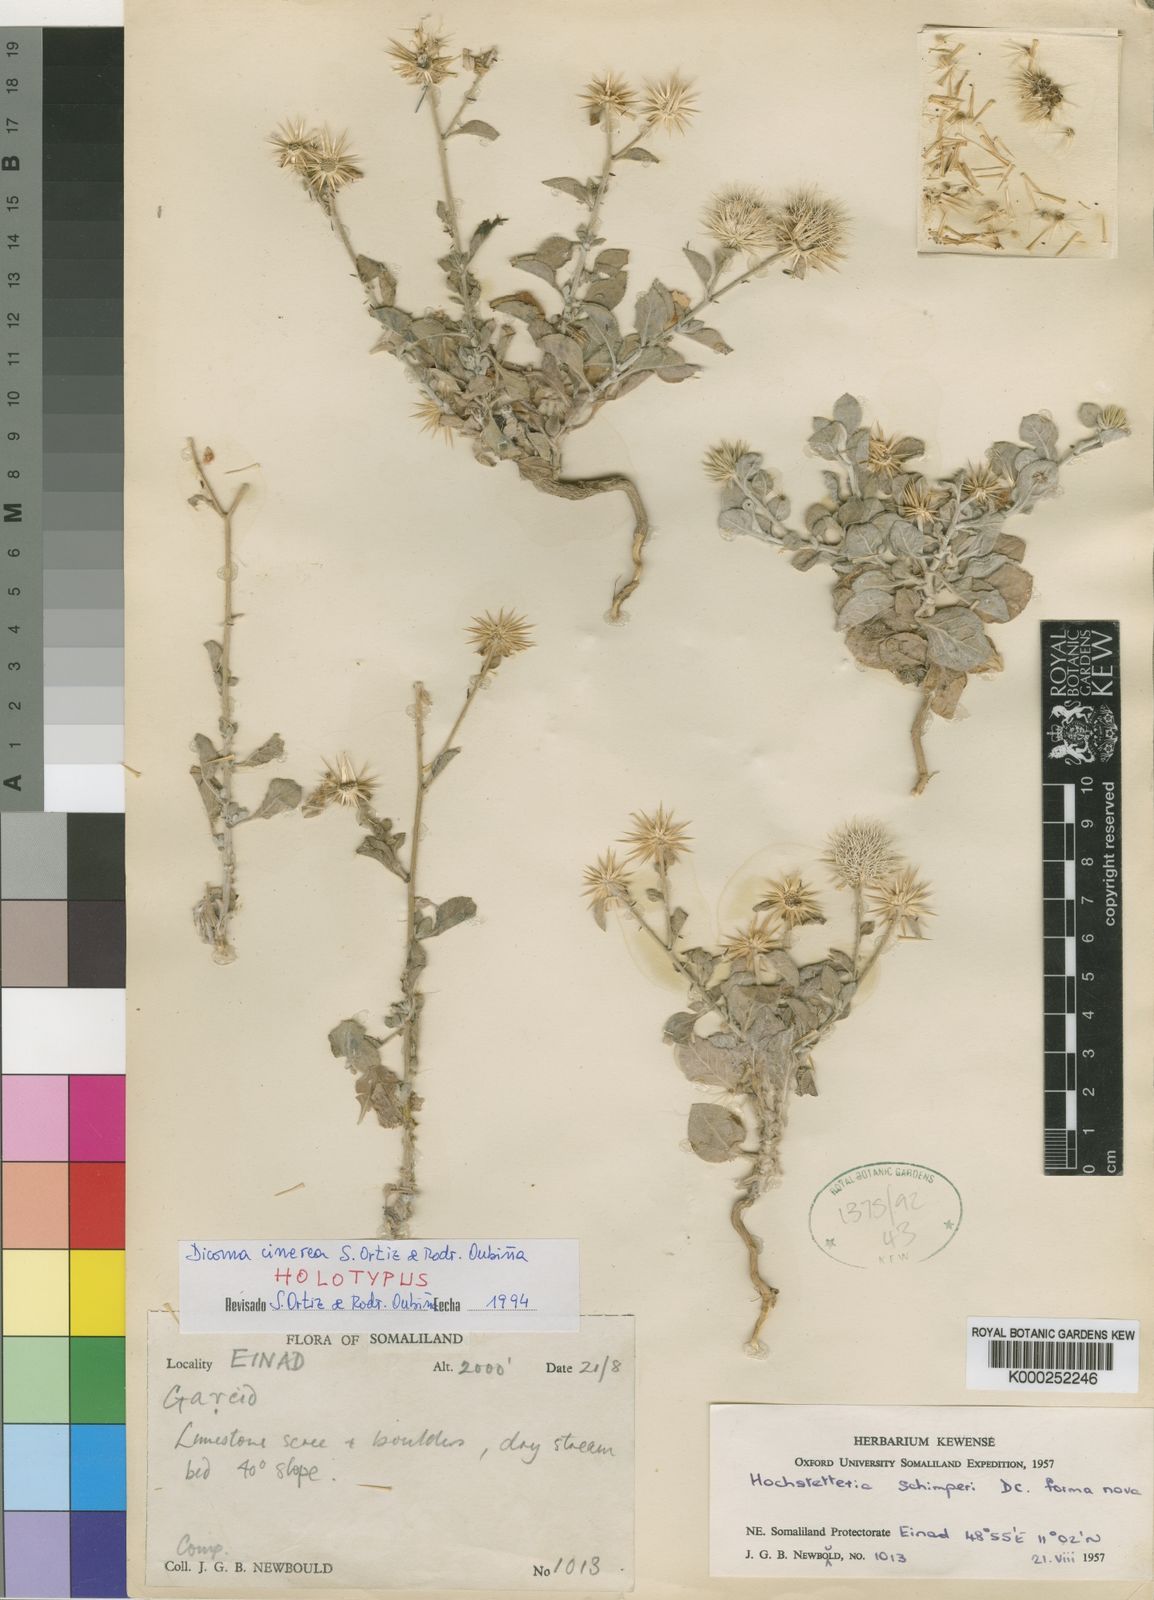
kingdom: Plantae
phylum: Tracheophyta
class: Magnoliopsida
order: Asterales
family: Asteraceae
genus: Dicoma
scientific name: Dicoma
